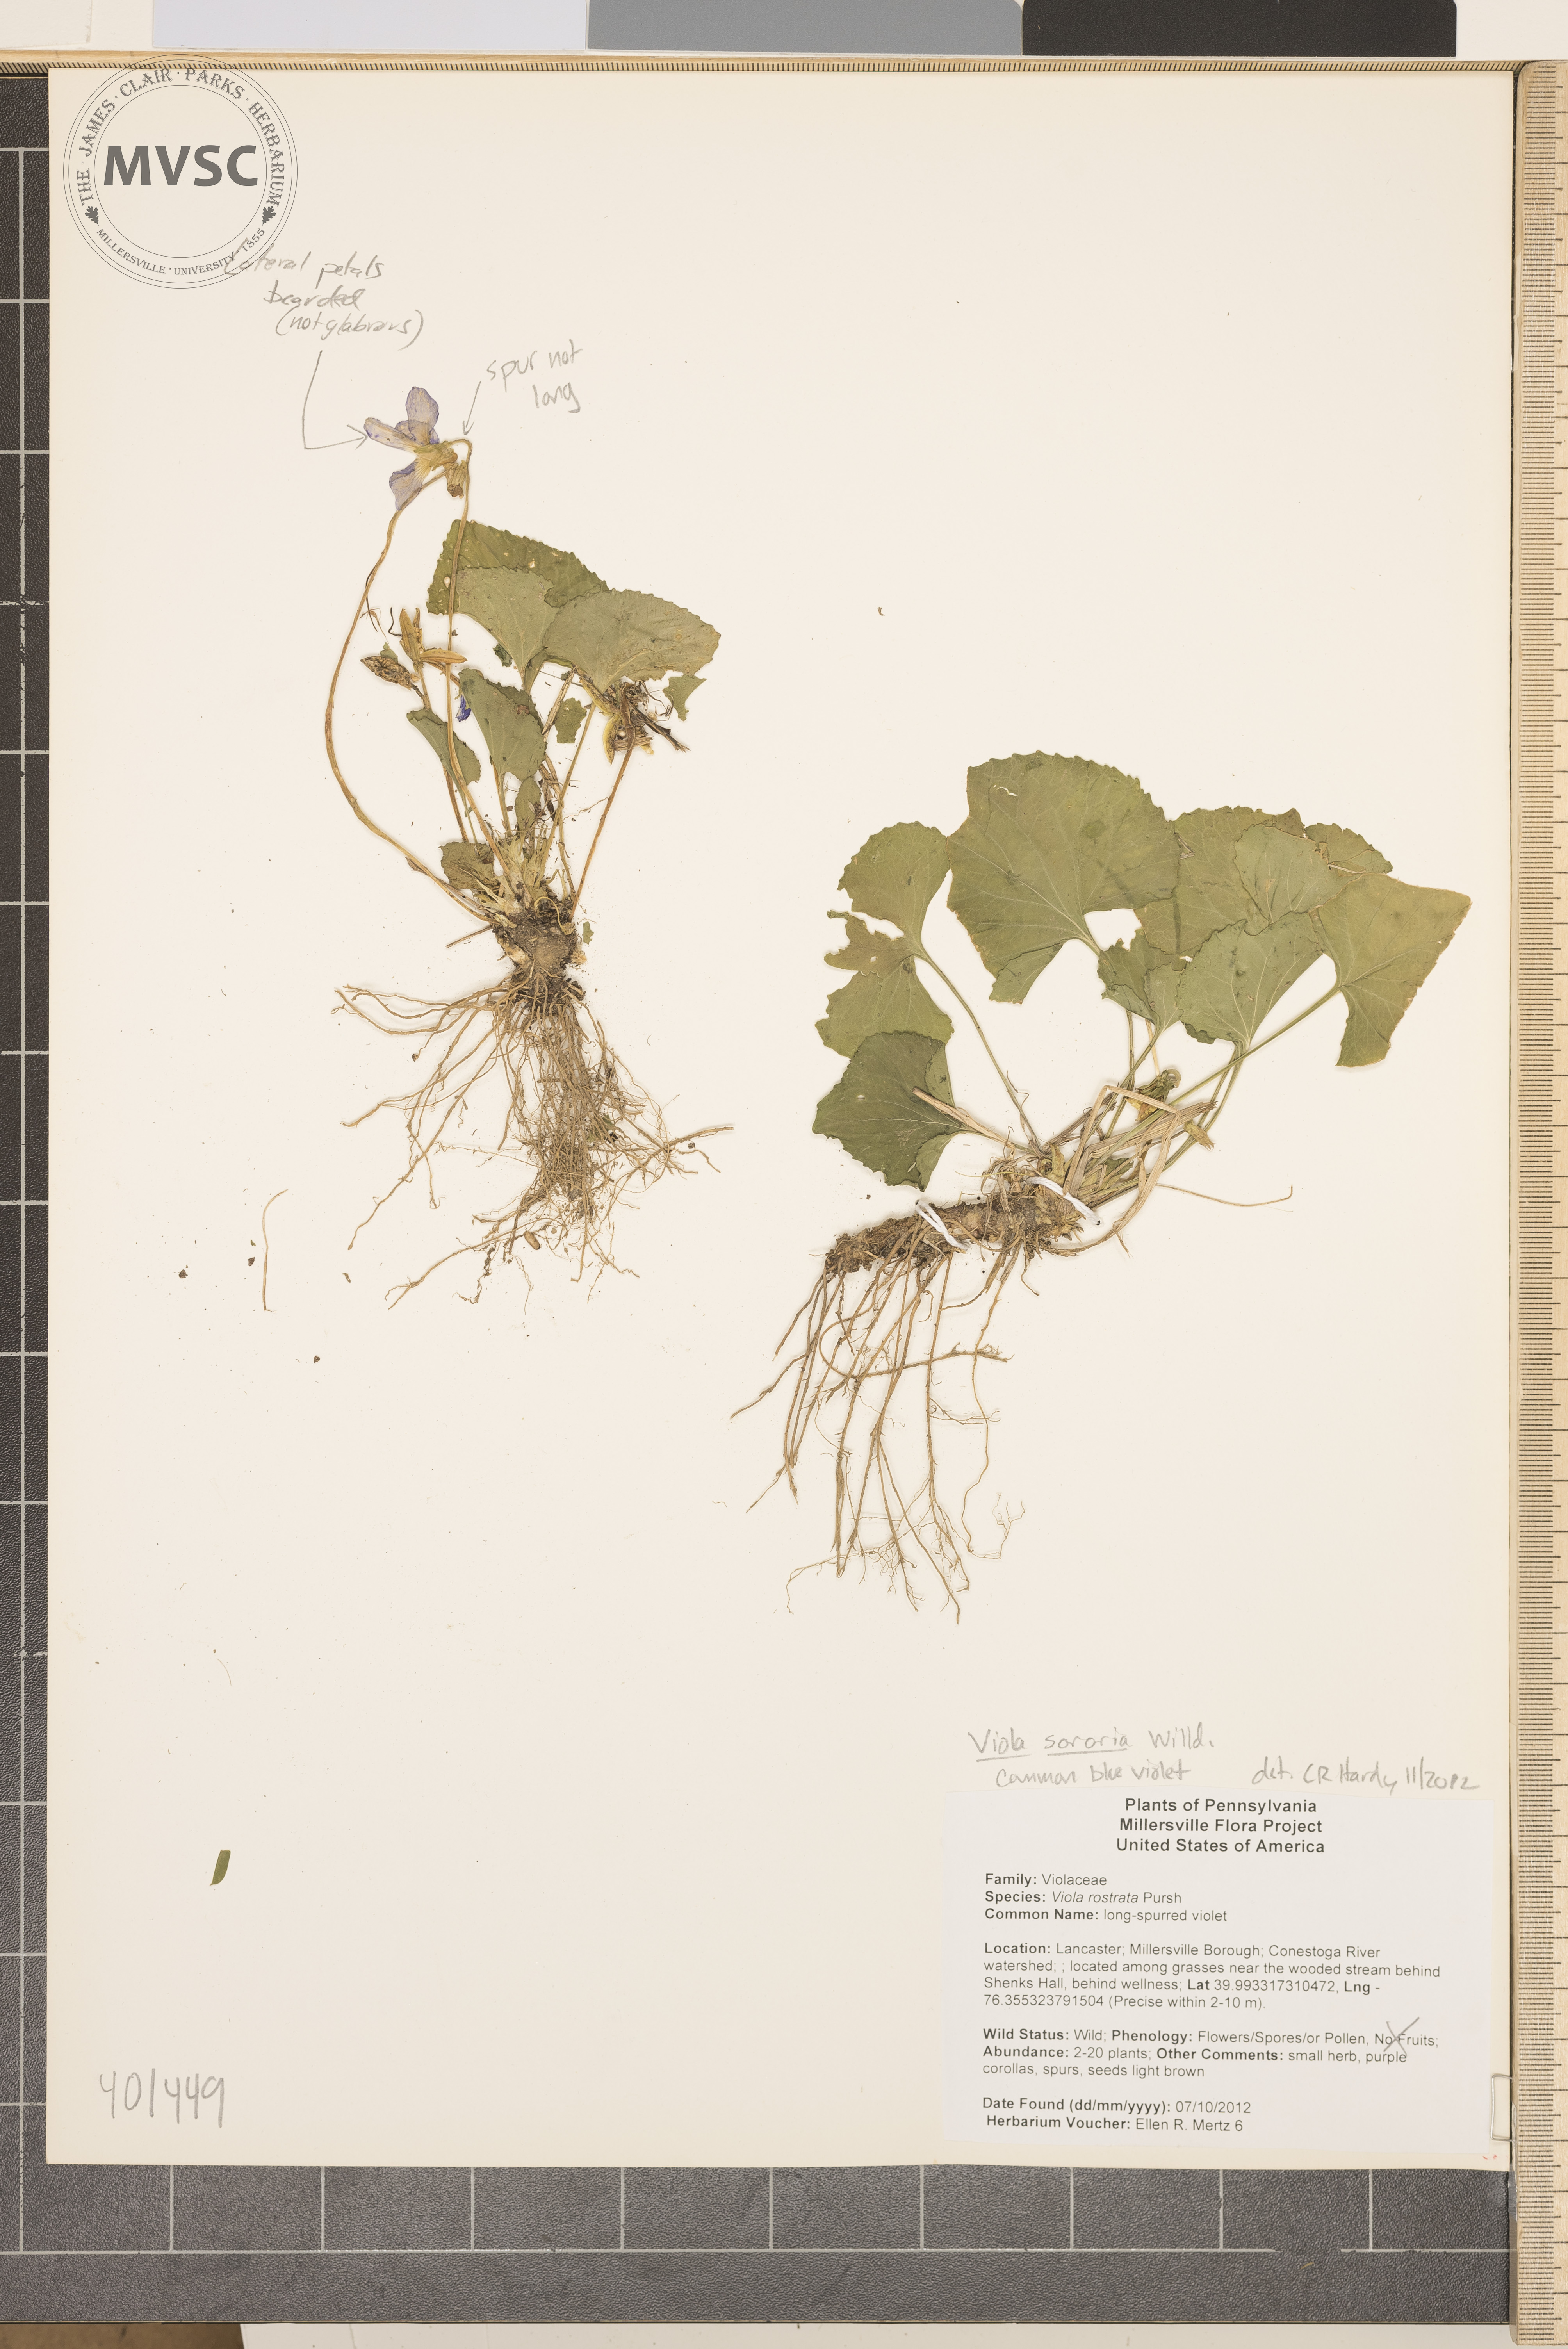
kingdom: Plantae
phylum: Tracheophyta
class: Magnoliopsida
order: Malpighiales
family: Violaceae
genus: Viola
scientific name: Viola sororia
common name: common blue violet
